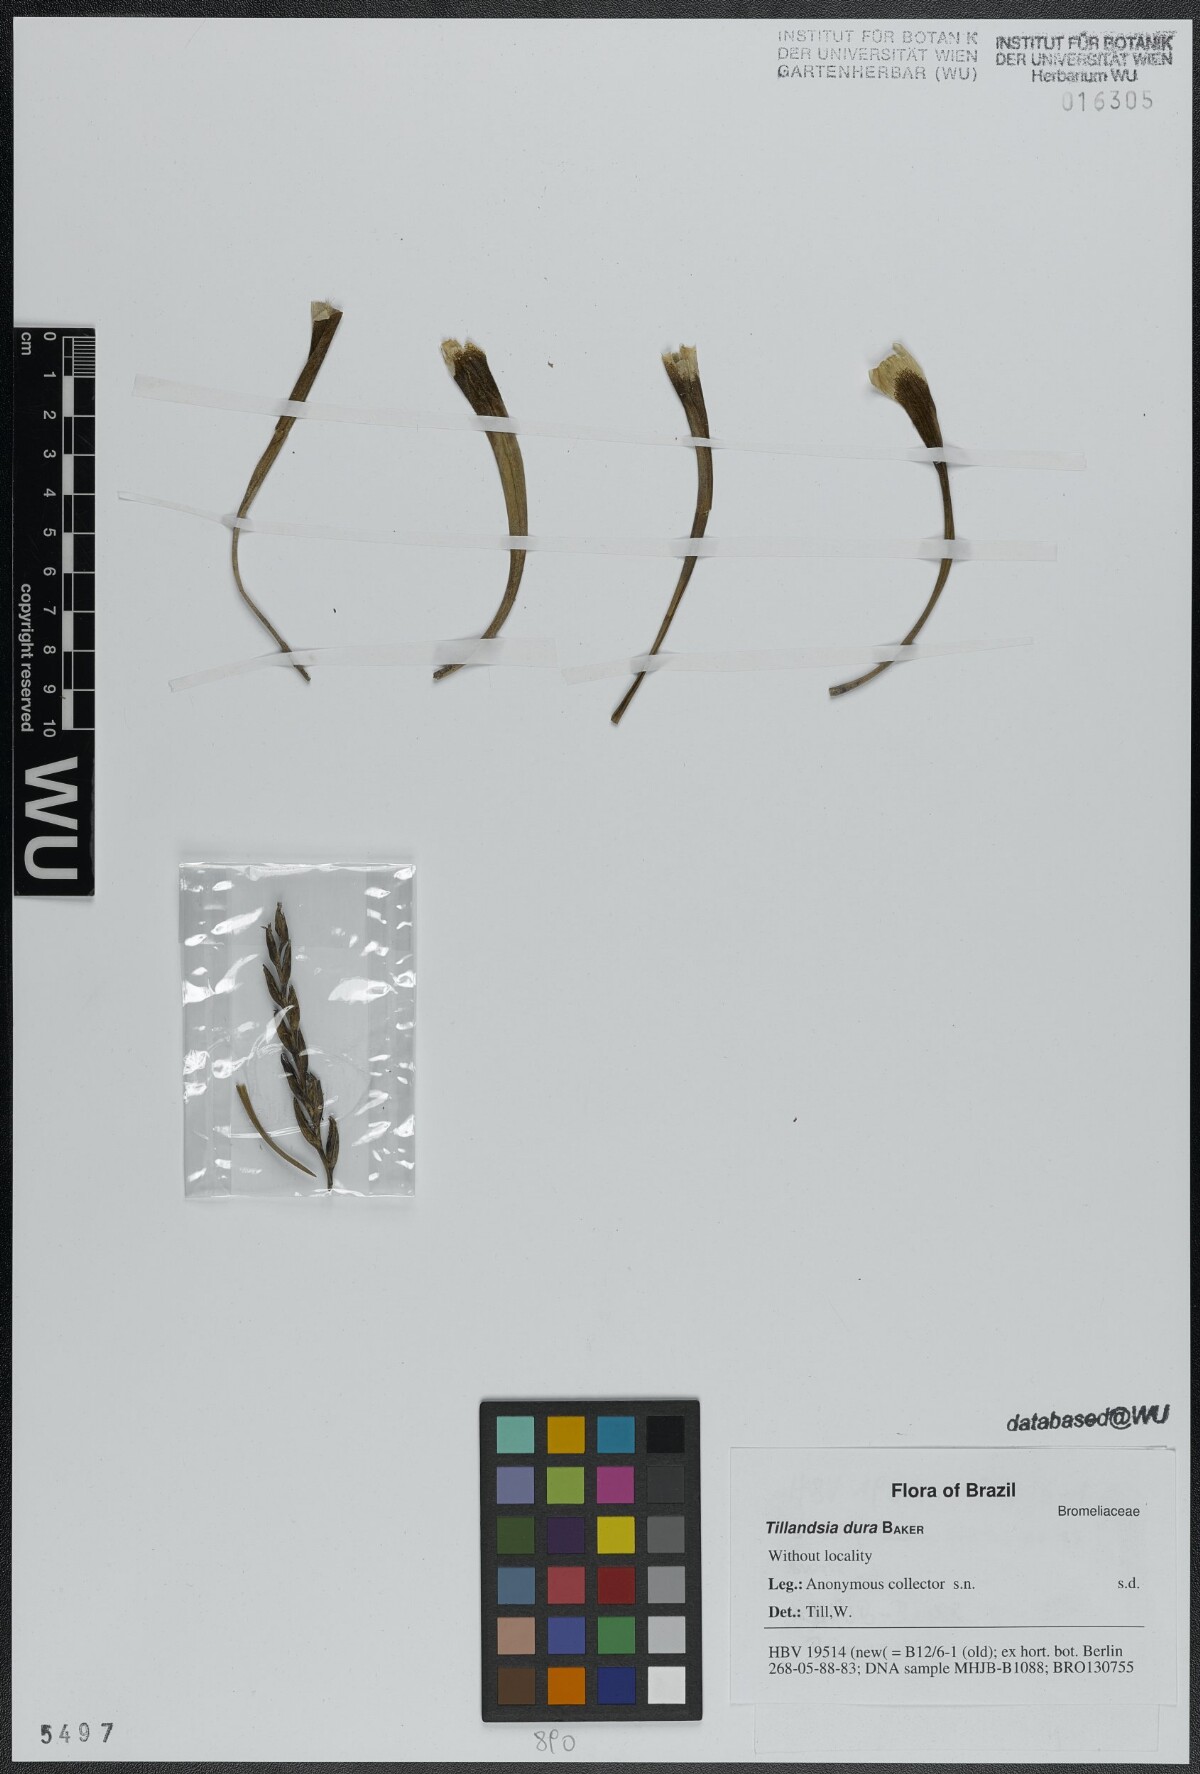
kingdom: Plantae
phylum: Tracheophyta
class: Liliopsida
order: Poales
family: Bromeliaceae
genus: Tillandsia
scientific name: Tillandsia dura
